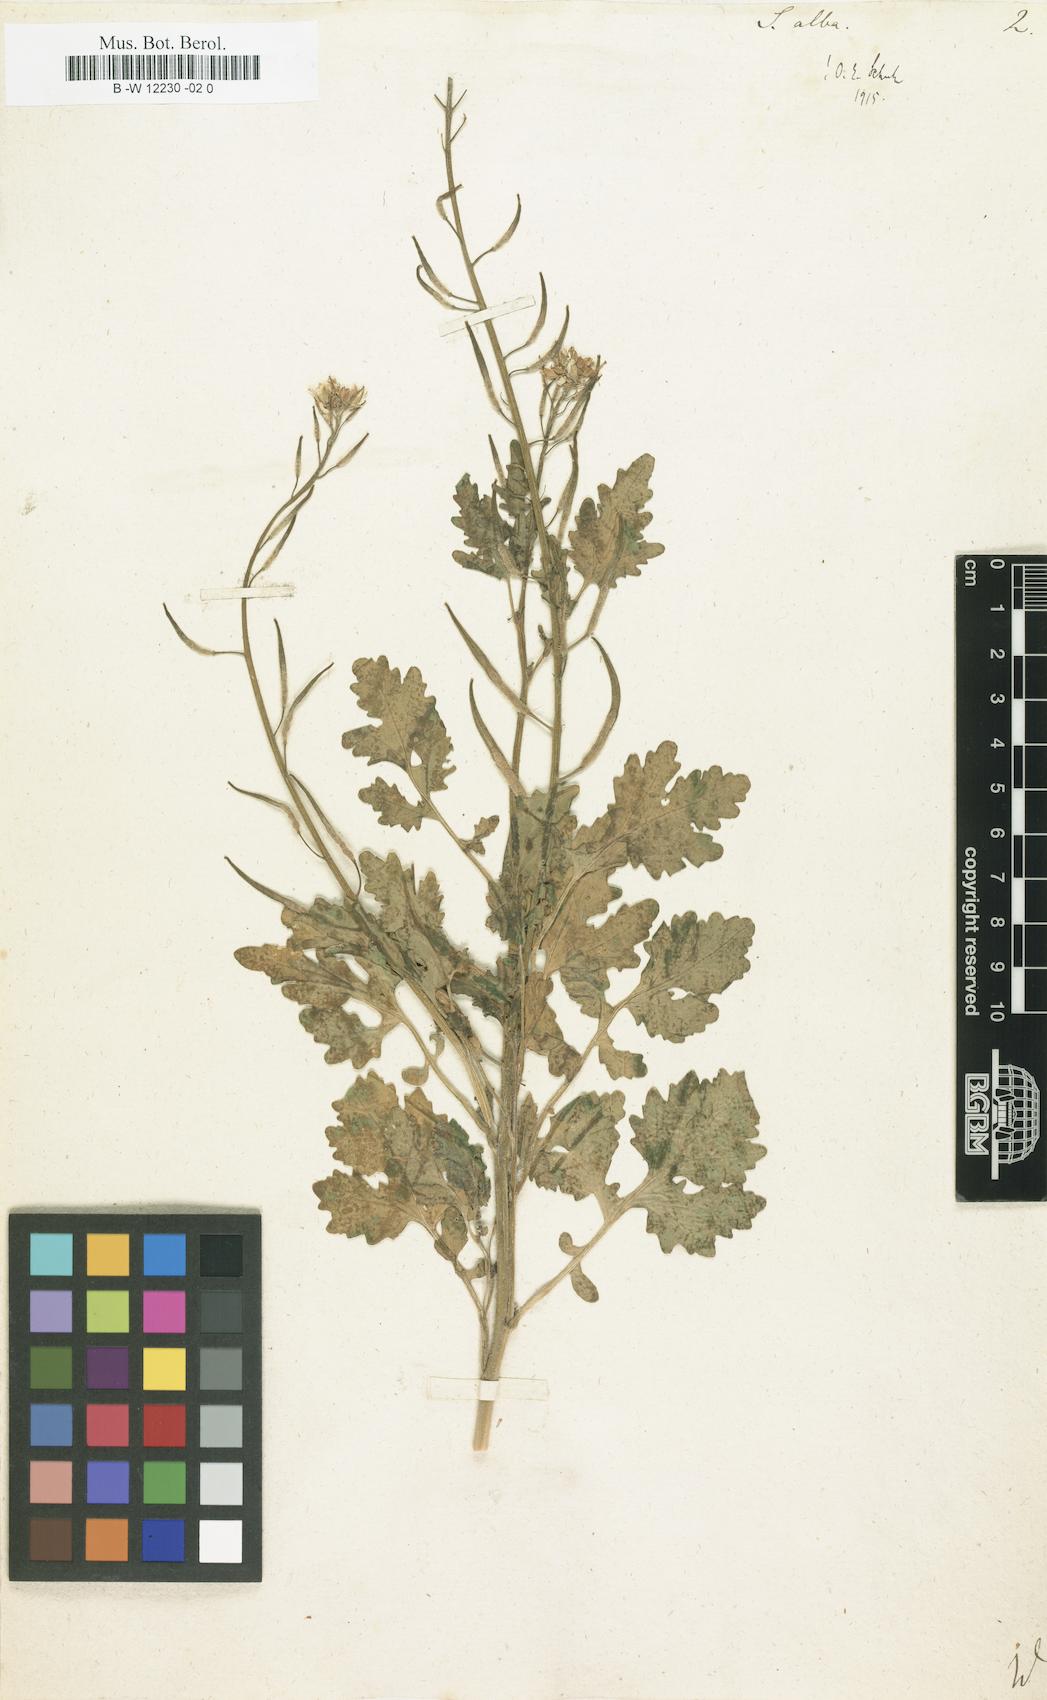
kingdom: Plantae
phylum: Tracheophyta
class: Magnoliopsida
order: Brassicales
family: Brassicaceae
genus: Sinapis
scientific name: Sinapis alba
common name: White mustard
